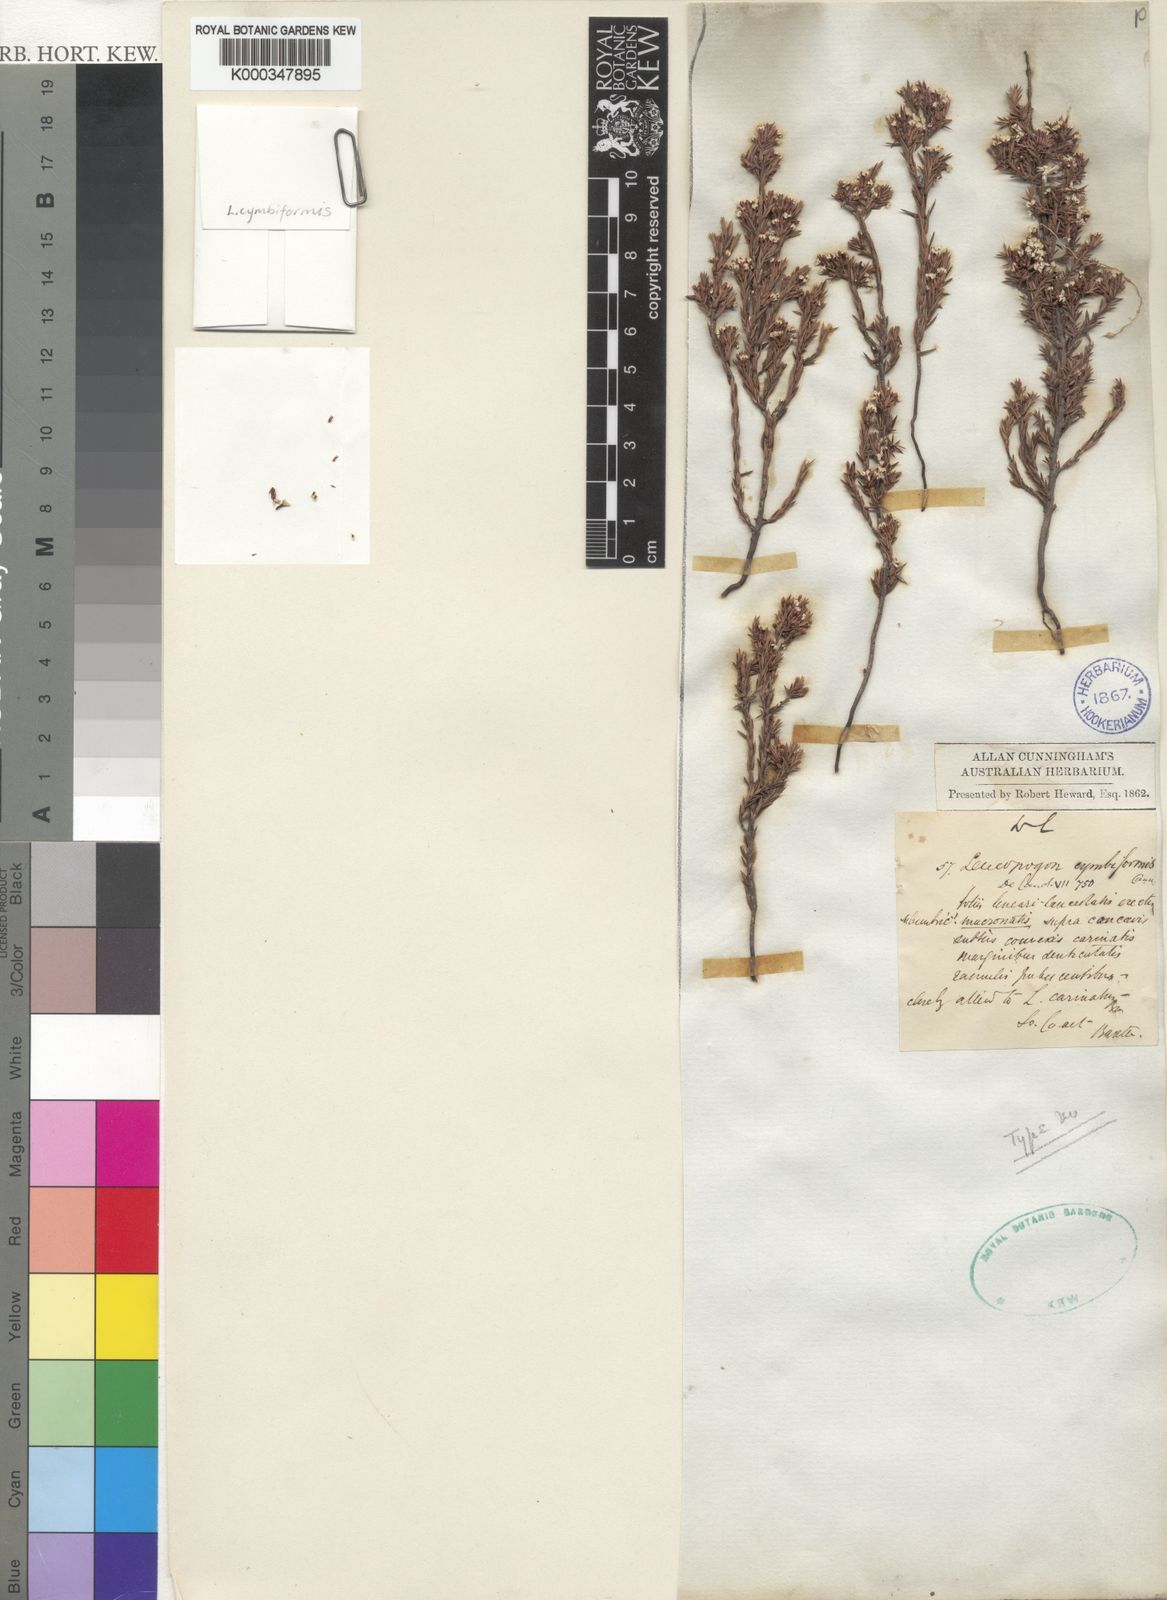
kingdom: Plantae
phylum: Tracheophyta
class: Magnoliopsida
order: Ericales
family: Ericaceae
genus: Styphelia
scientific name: Styphelia cymbiformis
